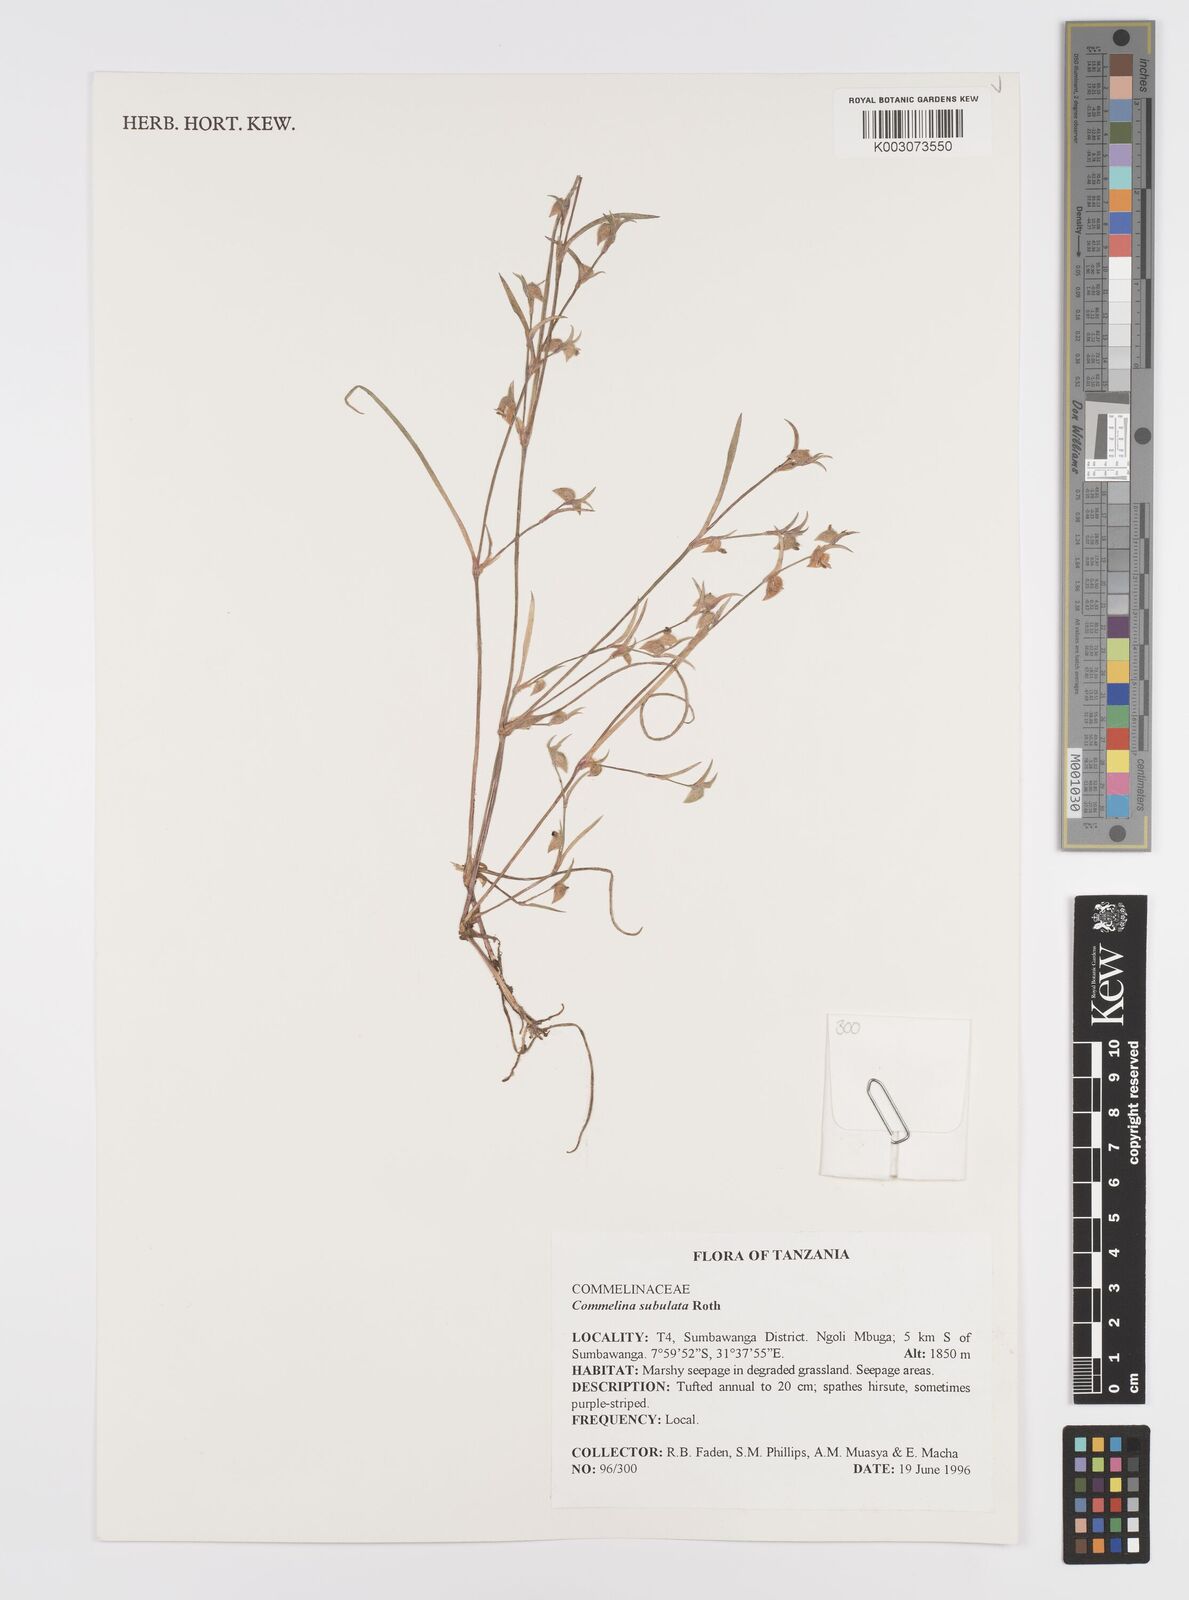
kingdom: Plantae
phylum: Tracheophyta
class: Liliopsida
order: Commelinales
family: Commelinaceae
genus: Commelina
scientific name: Commelina subulata
